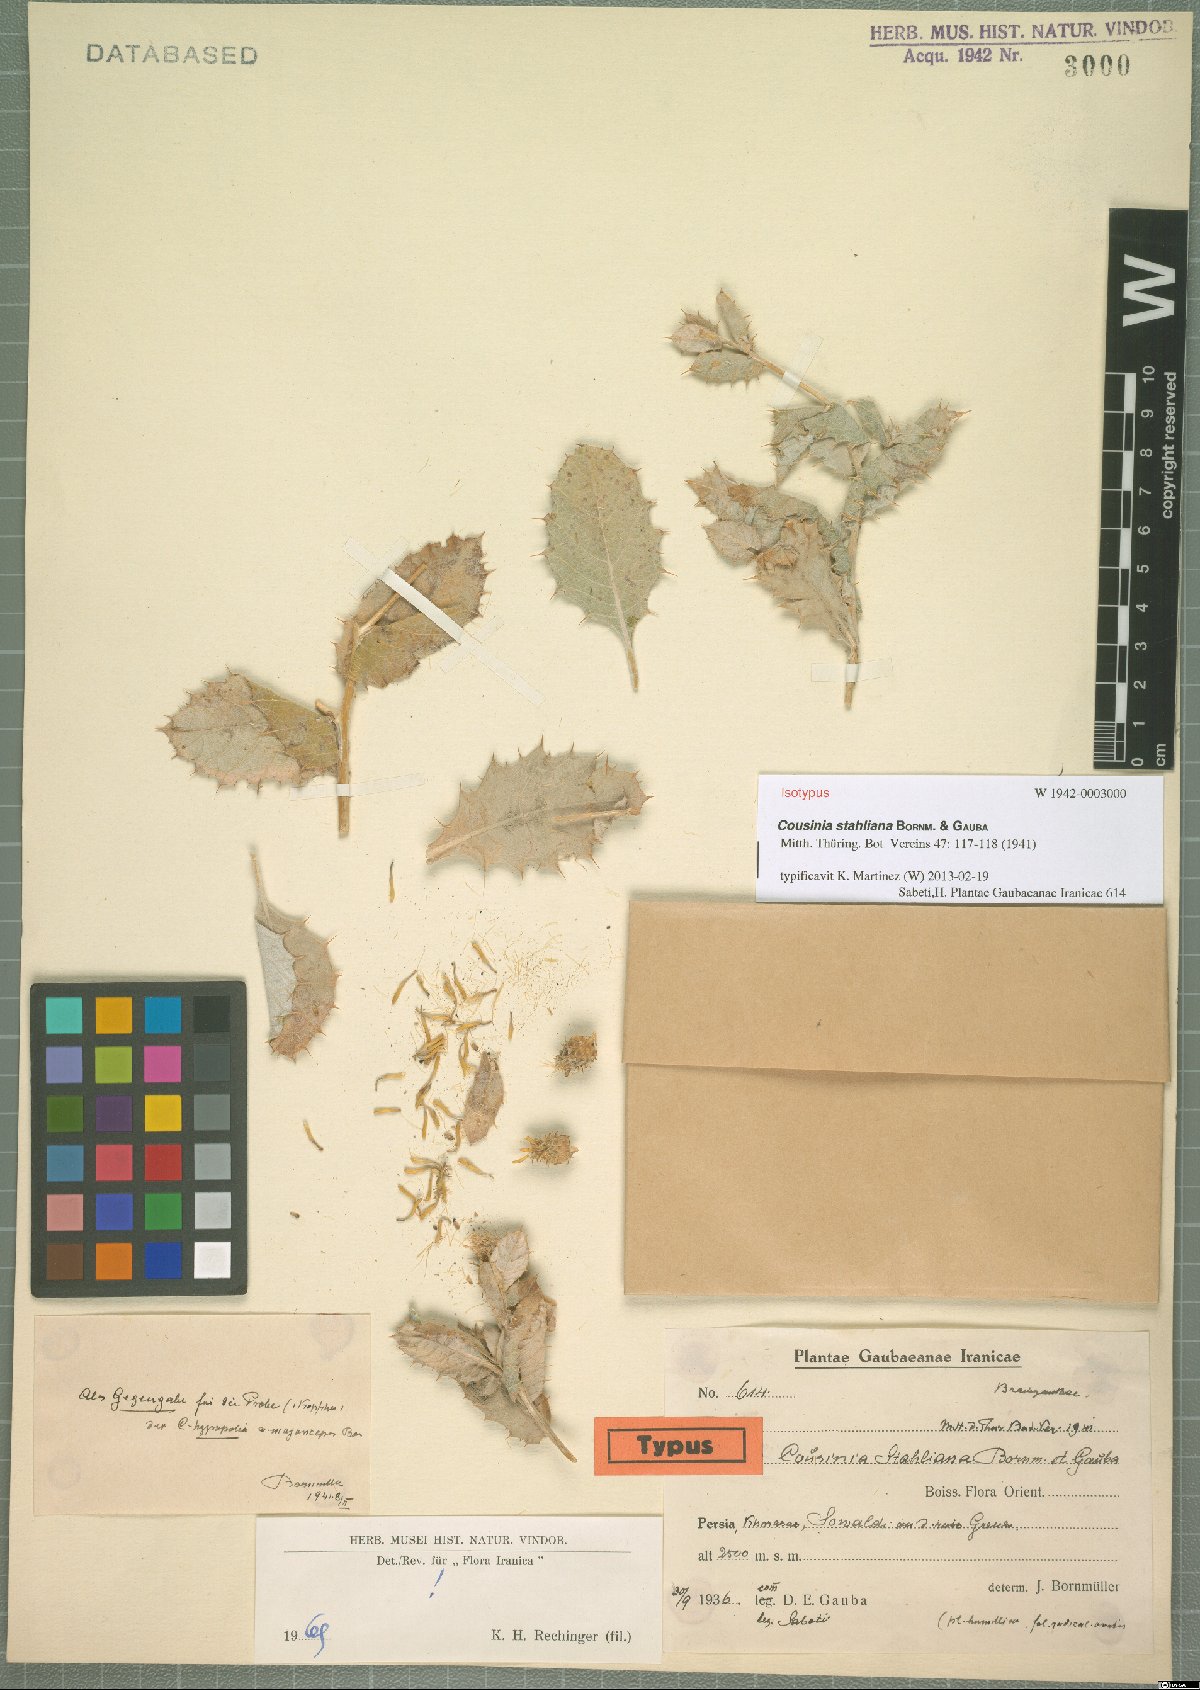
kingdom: Plantae
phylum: Tracheophyta
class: Magnoliopsida
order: Asterales
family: Asteraceae
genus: Cousinia
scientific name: Cousinia stahliana
